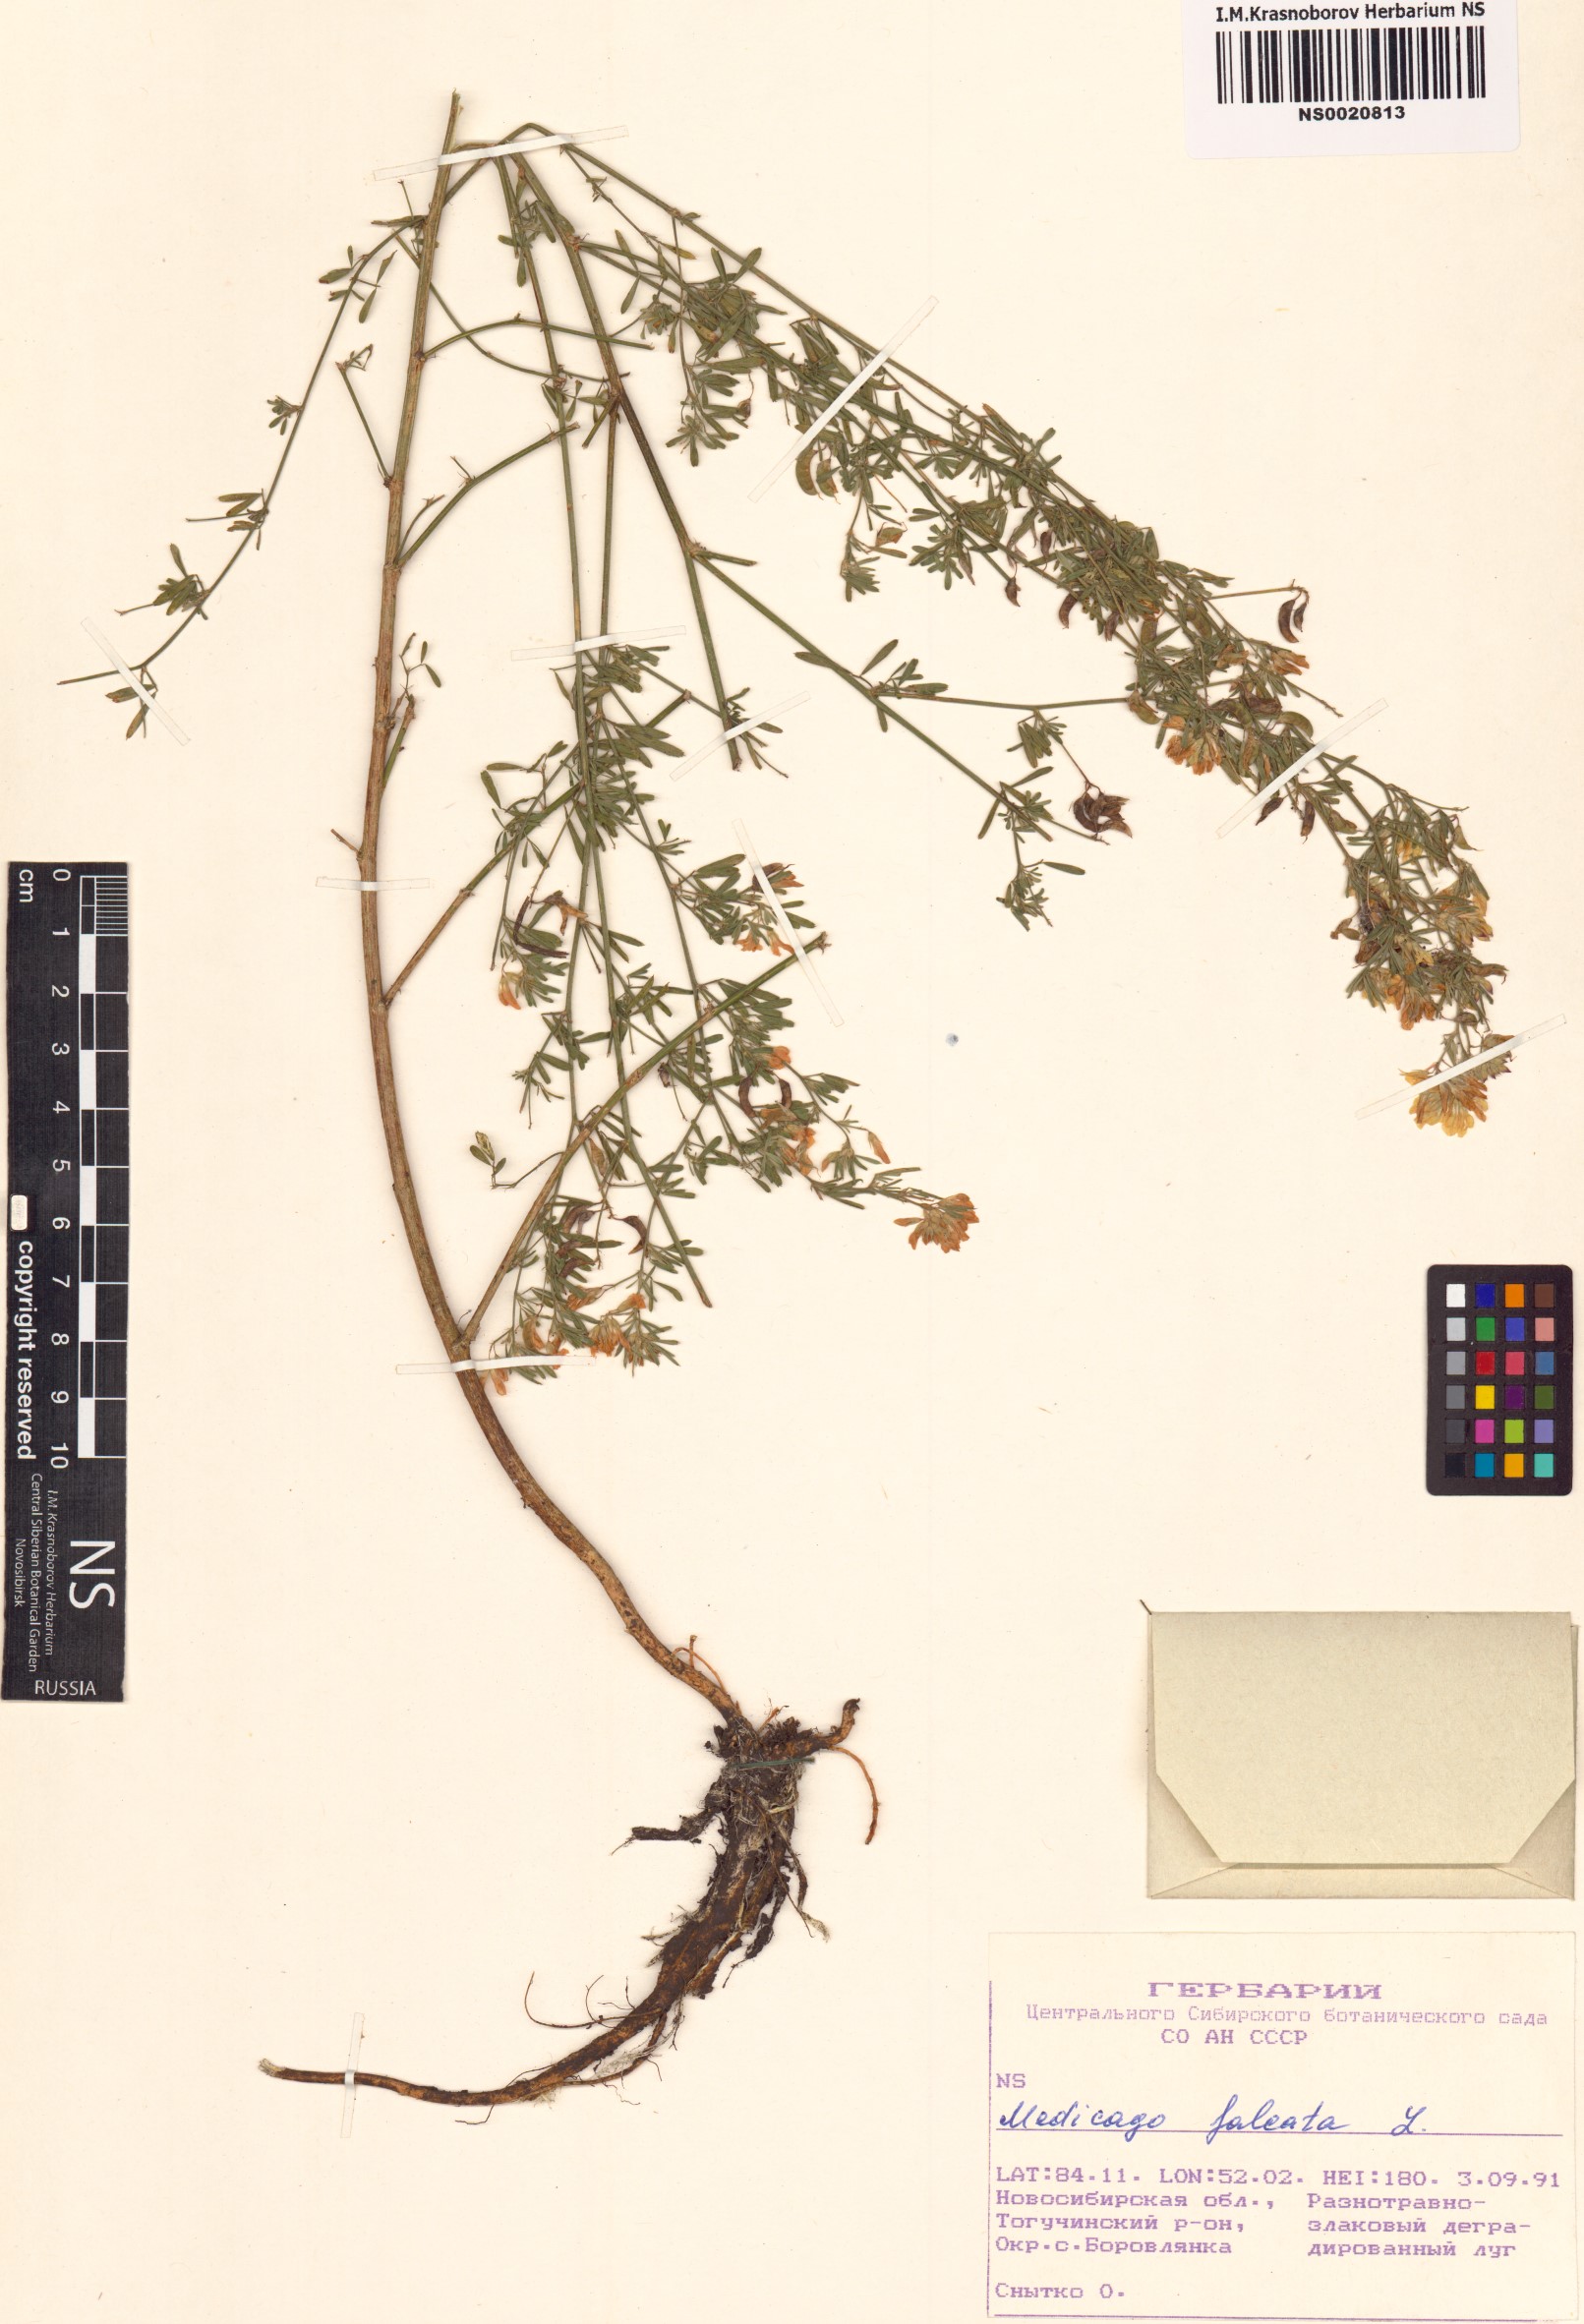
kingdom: Plantae
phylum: Tracheophyta
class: Magnoliopsida
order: Fabales
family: Fabaceae
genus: Medicago
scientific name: Medicago falcata
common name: Sickle medick
